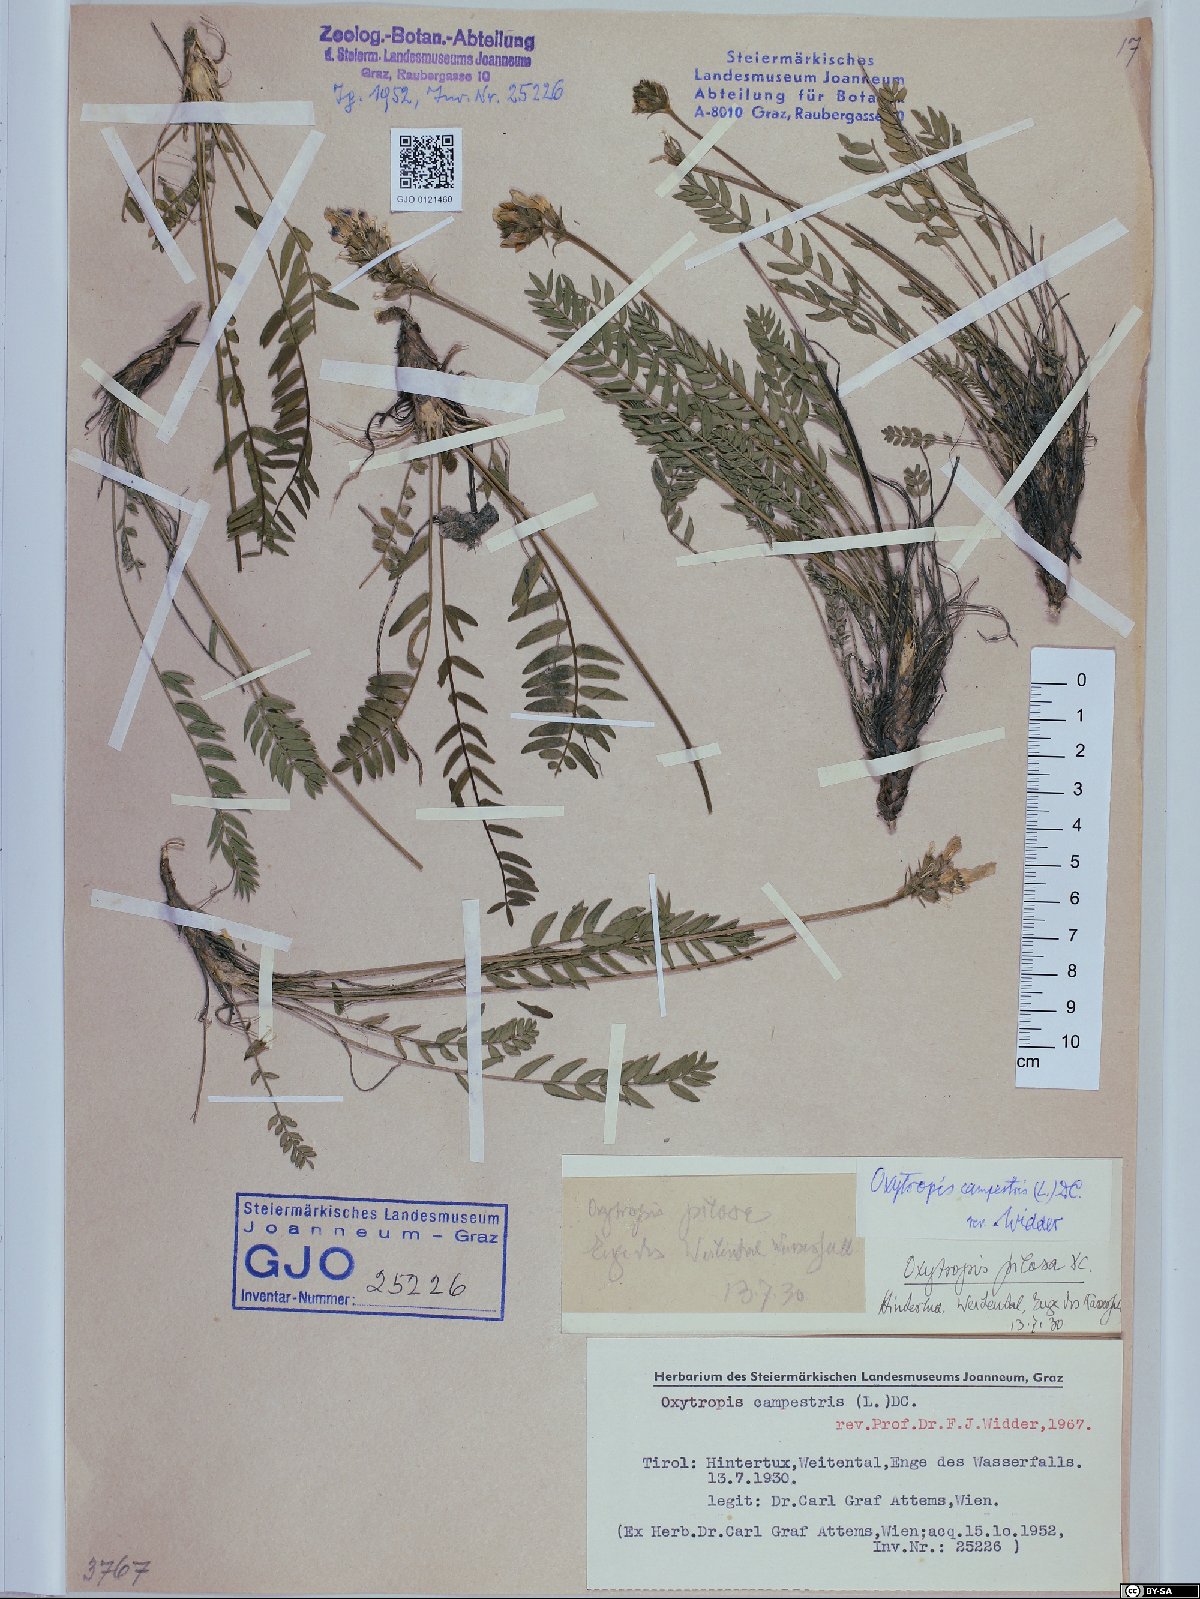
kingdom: Plantae
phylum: Tracheophyta
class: Magnoliopsida
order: Fabales
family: Fabaceae
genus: Oxytropis
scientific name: Oxytropis campestris
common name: Field locoweed
